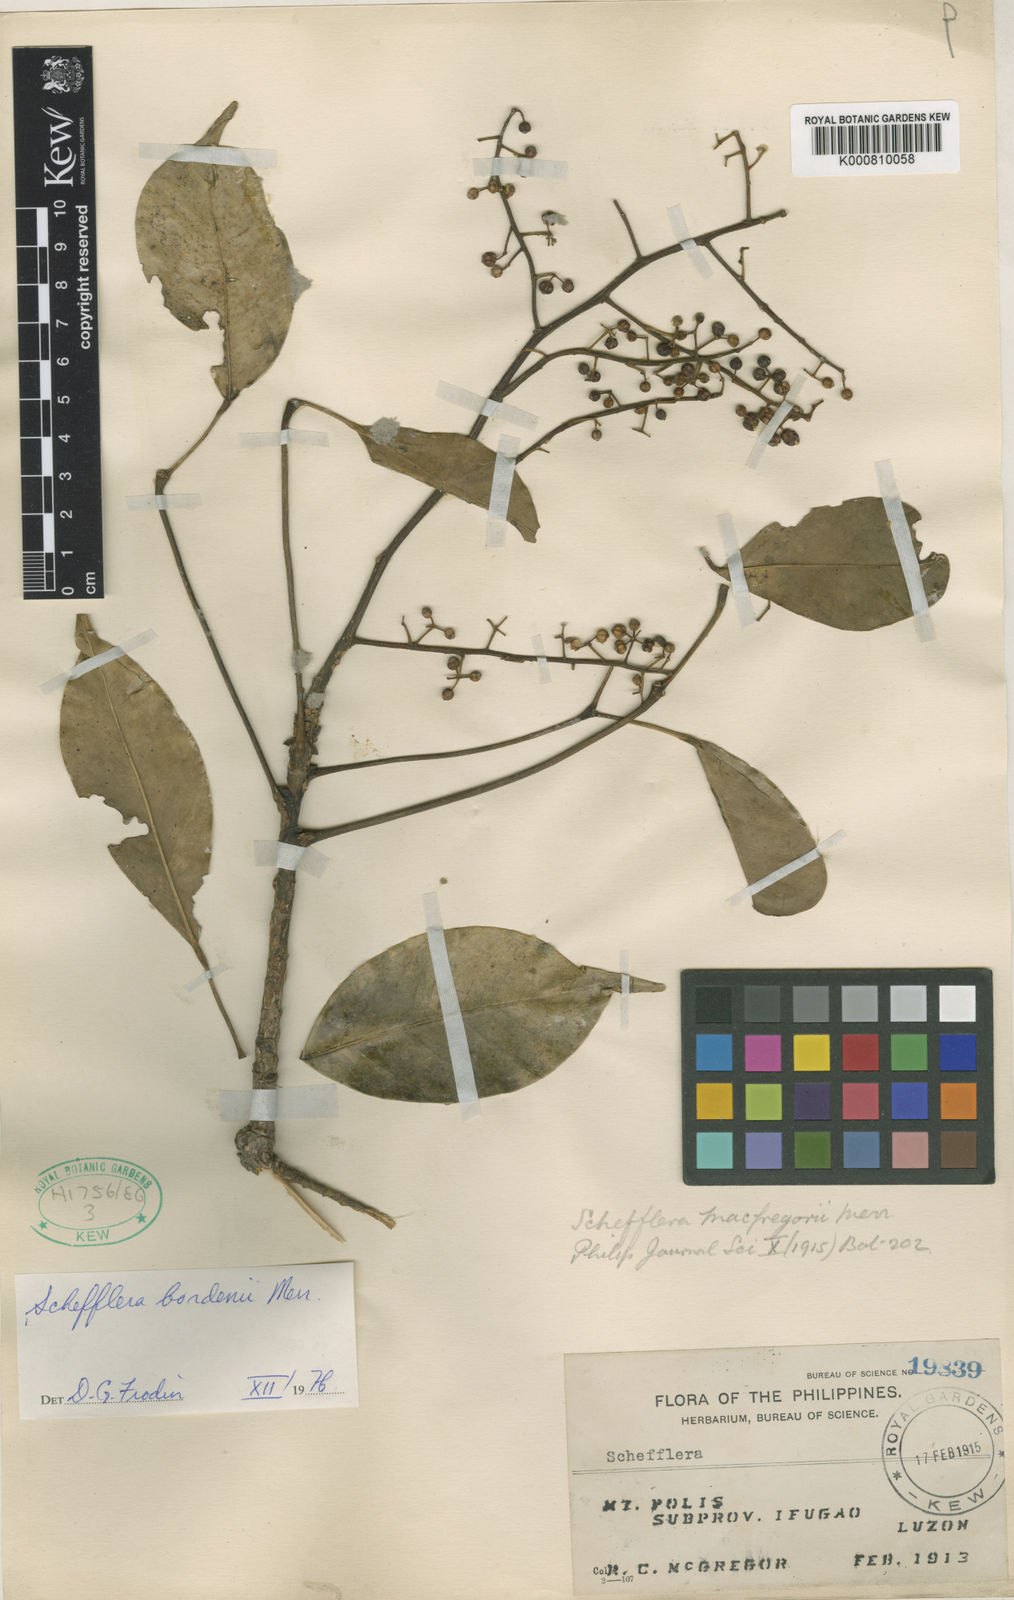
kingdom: Plantae
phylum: Tracheophyta
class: Magnoliopsida
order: Apiales
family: Araliaceae
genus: Heptapleurum
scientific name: Heptapleurum bordenii
